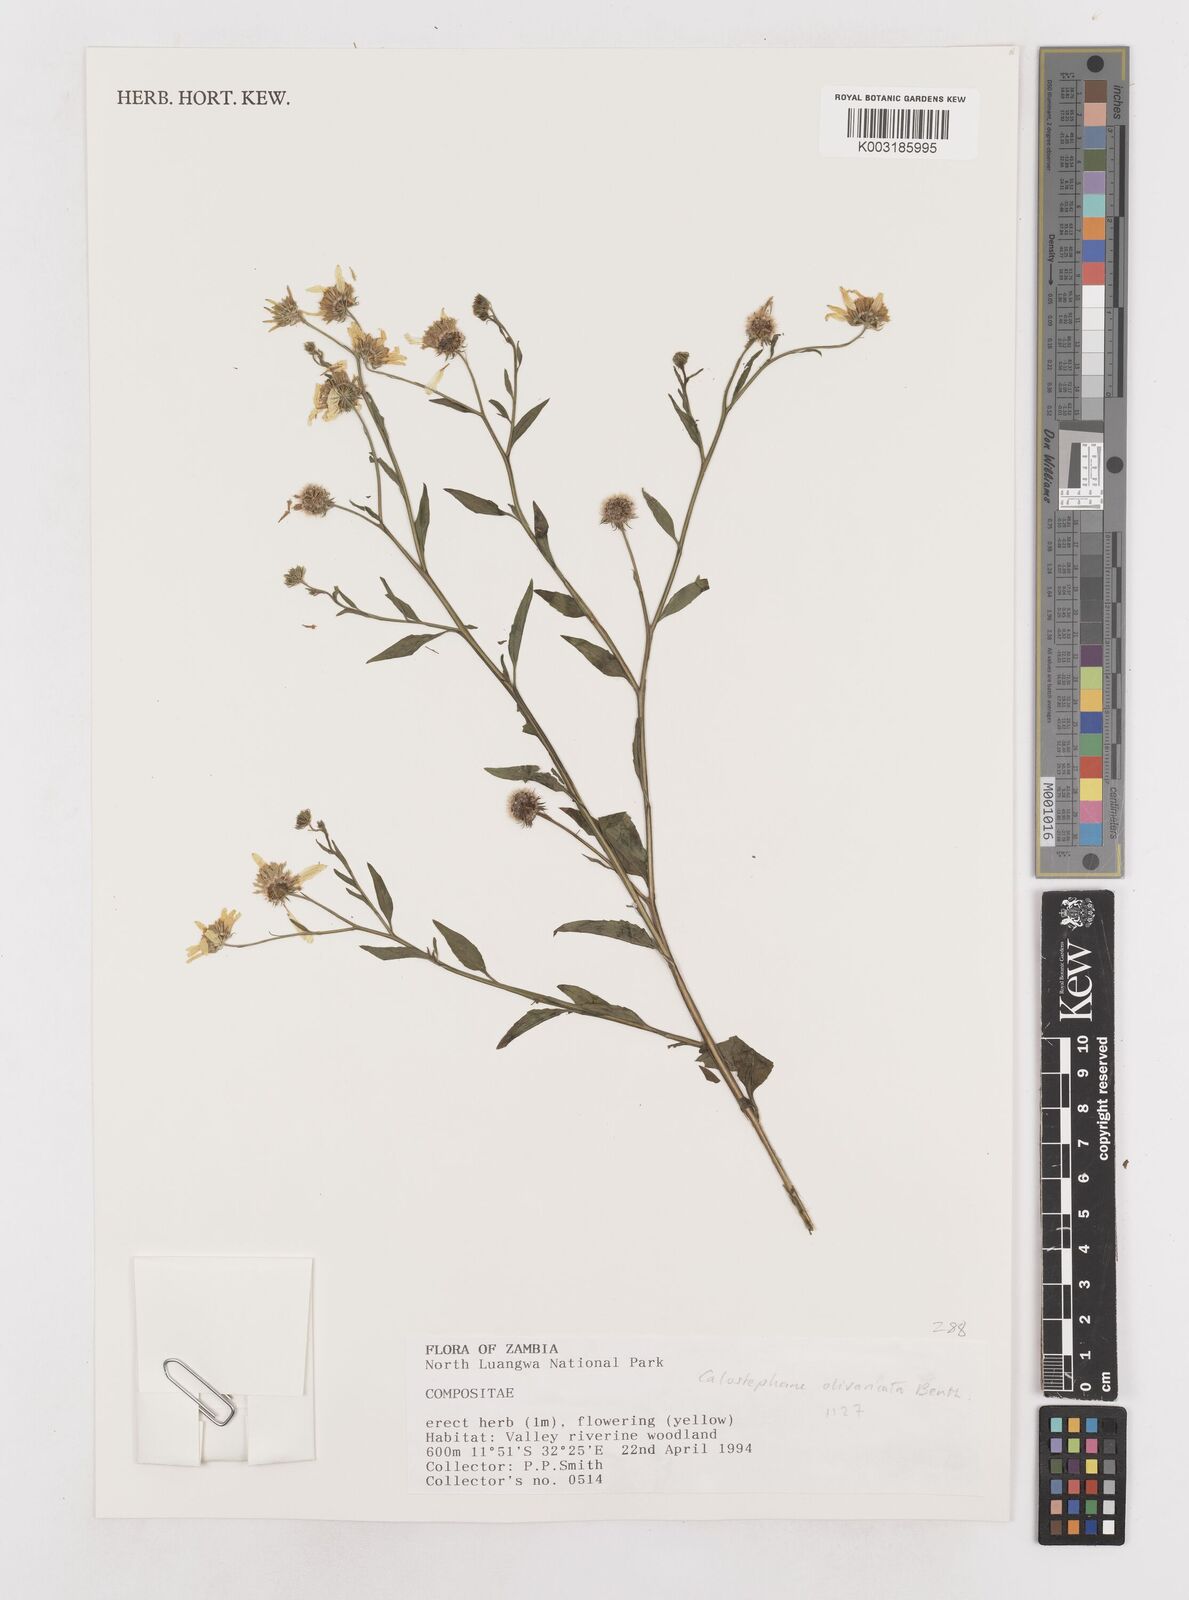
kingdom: Plantae
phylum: Tracheophyta
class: Magnoliopsida
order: Asterales
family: Asteraceae
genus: Calostephane
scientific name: Calostephane divaricata
